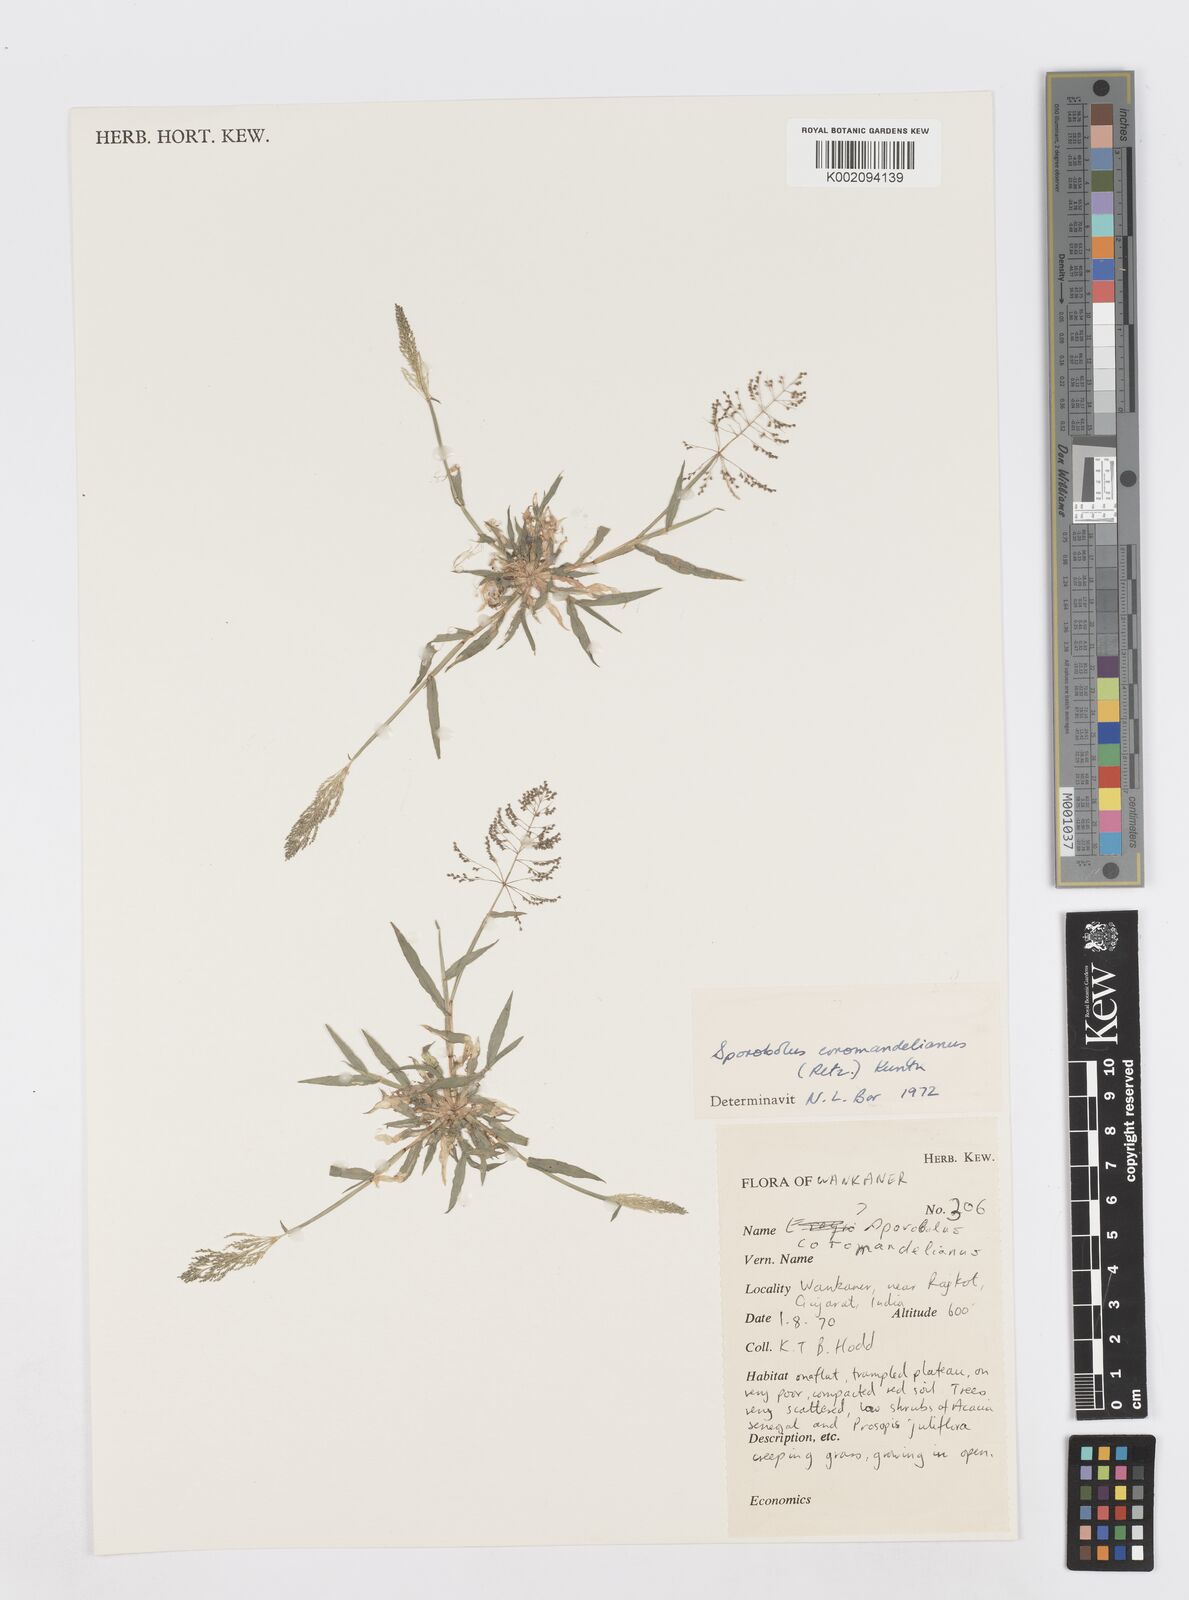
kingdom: Plantae
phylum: Tracheophyta
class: Liliopsida
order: Poales
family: Poaceae
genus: Sporobolus
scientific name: Sporobolus coromandelianus
